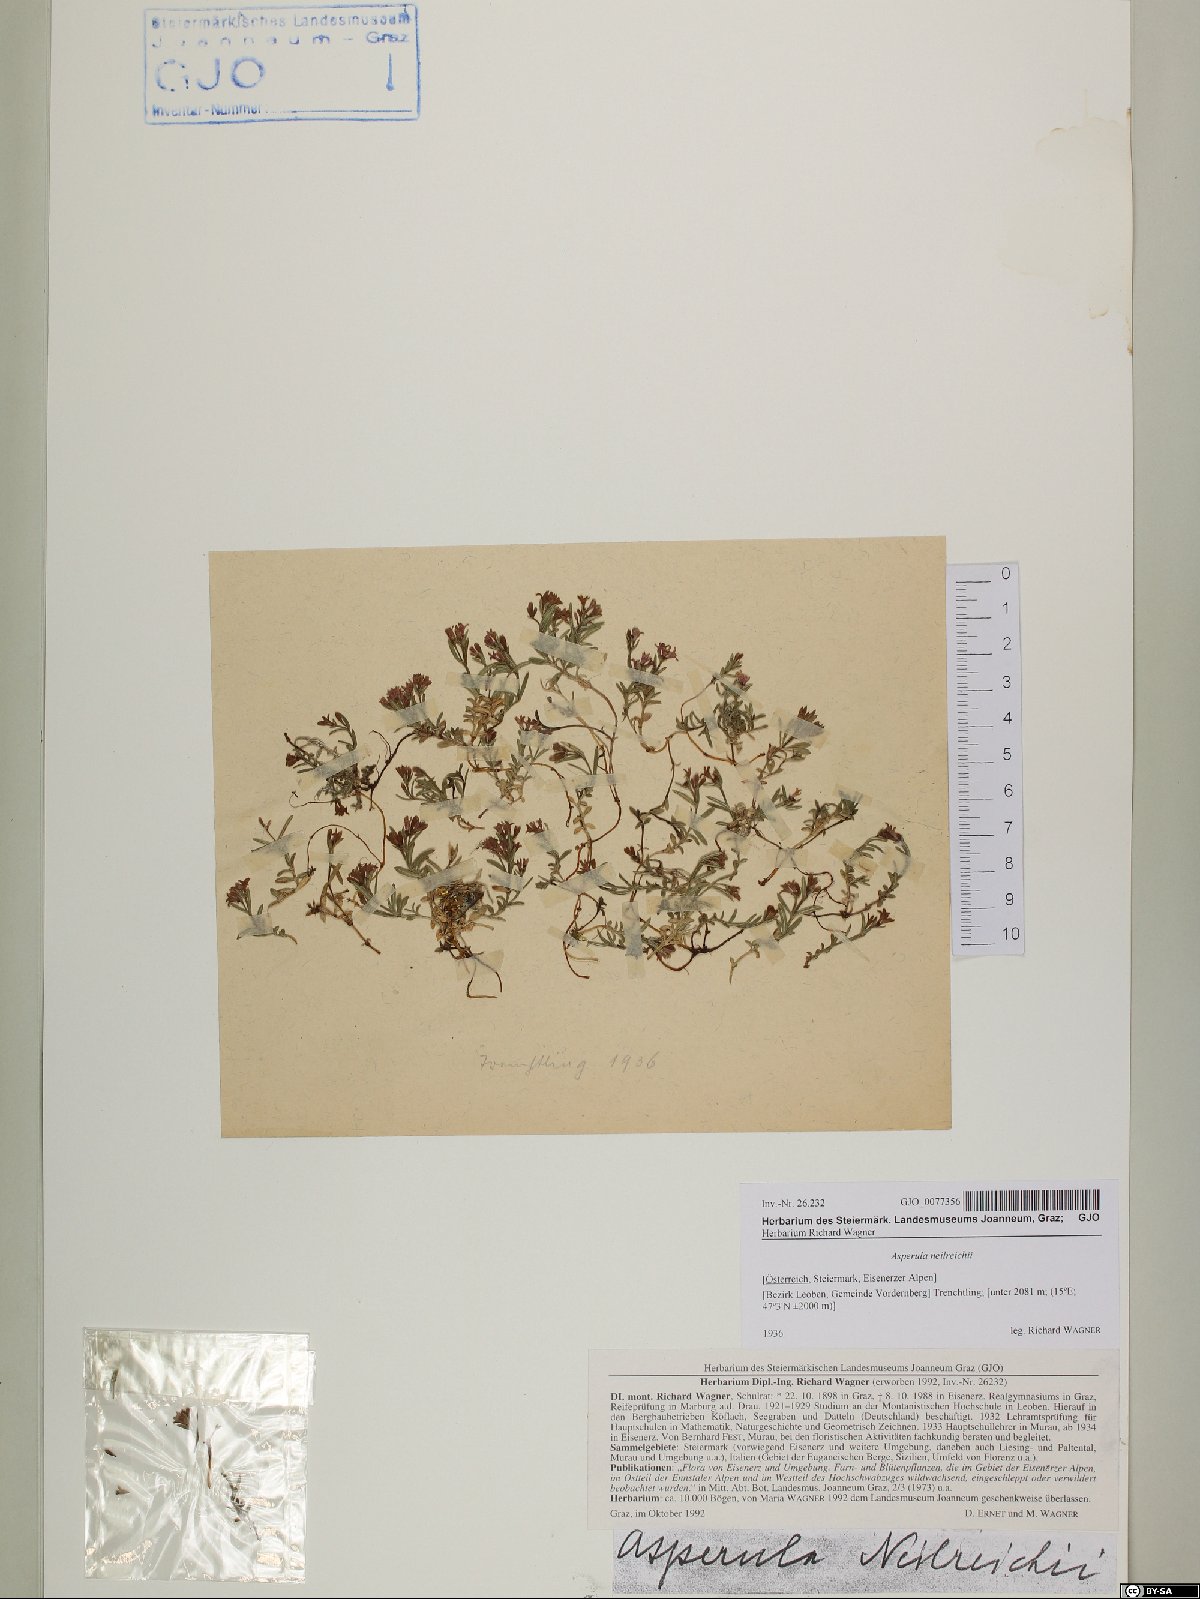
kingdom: Plantae
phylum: Tracheophyta
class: Magnoliopsida
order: Gentianales
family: Rubiaceae
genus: Cynanchica
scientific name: Cynanchica neilreichii
